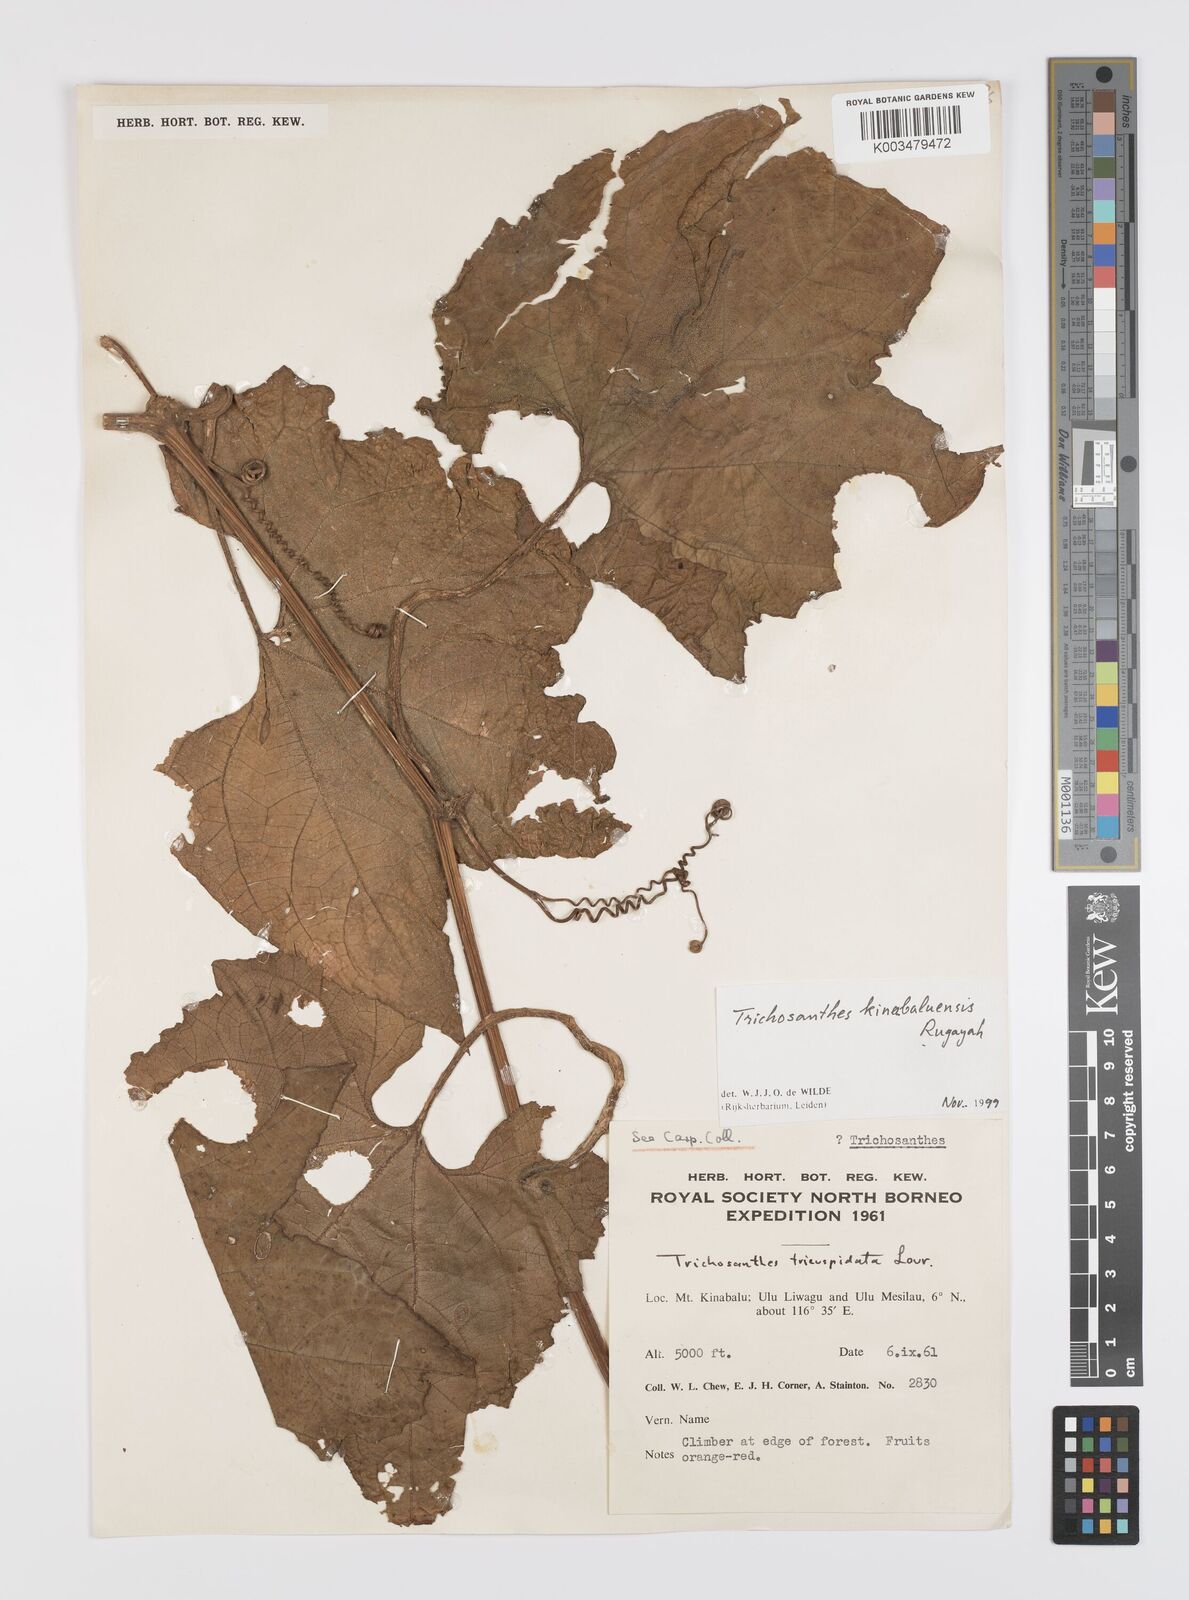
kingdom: Plantae
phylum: Tracheophyta
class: Magnoliopsida
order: Cucurbitales
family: Cucurbitaceae
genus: Trichosanthes
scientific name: Trichosanthes kinabaluensis
